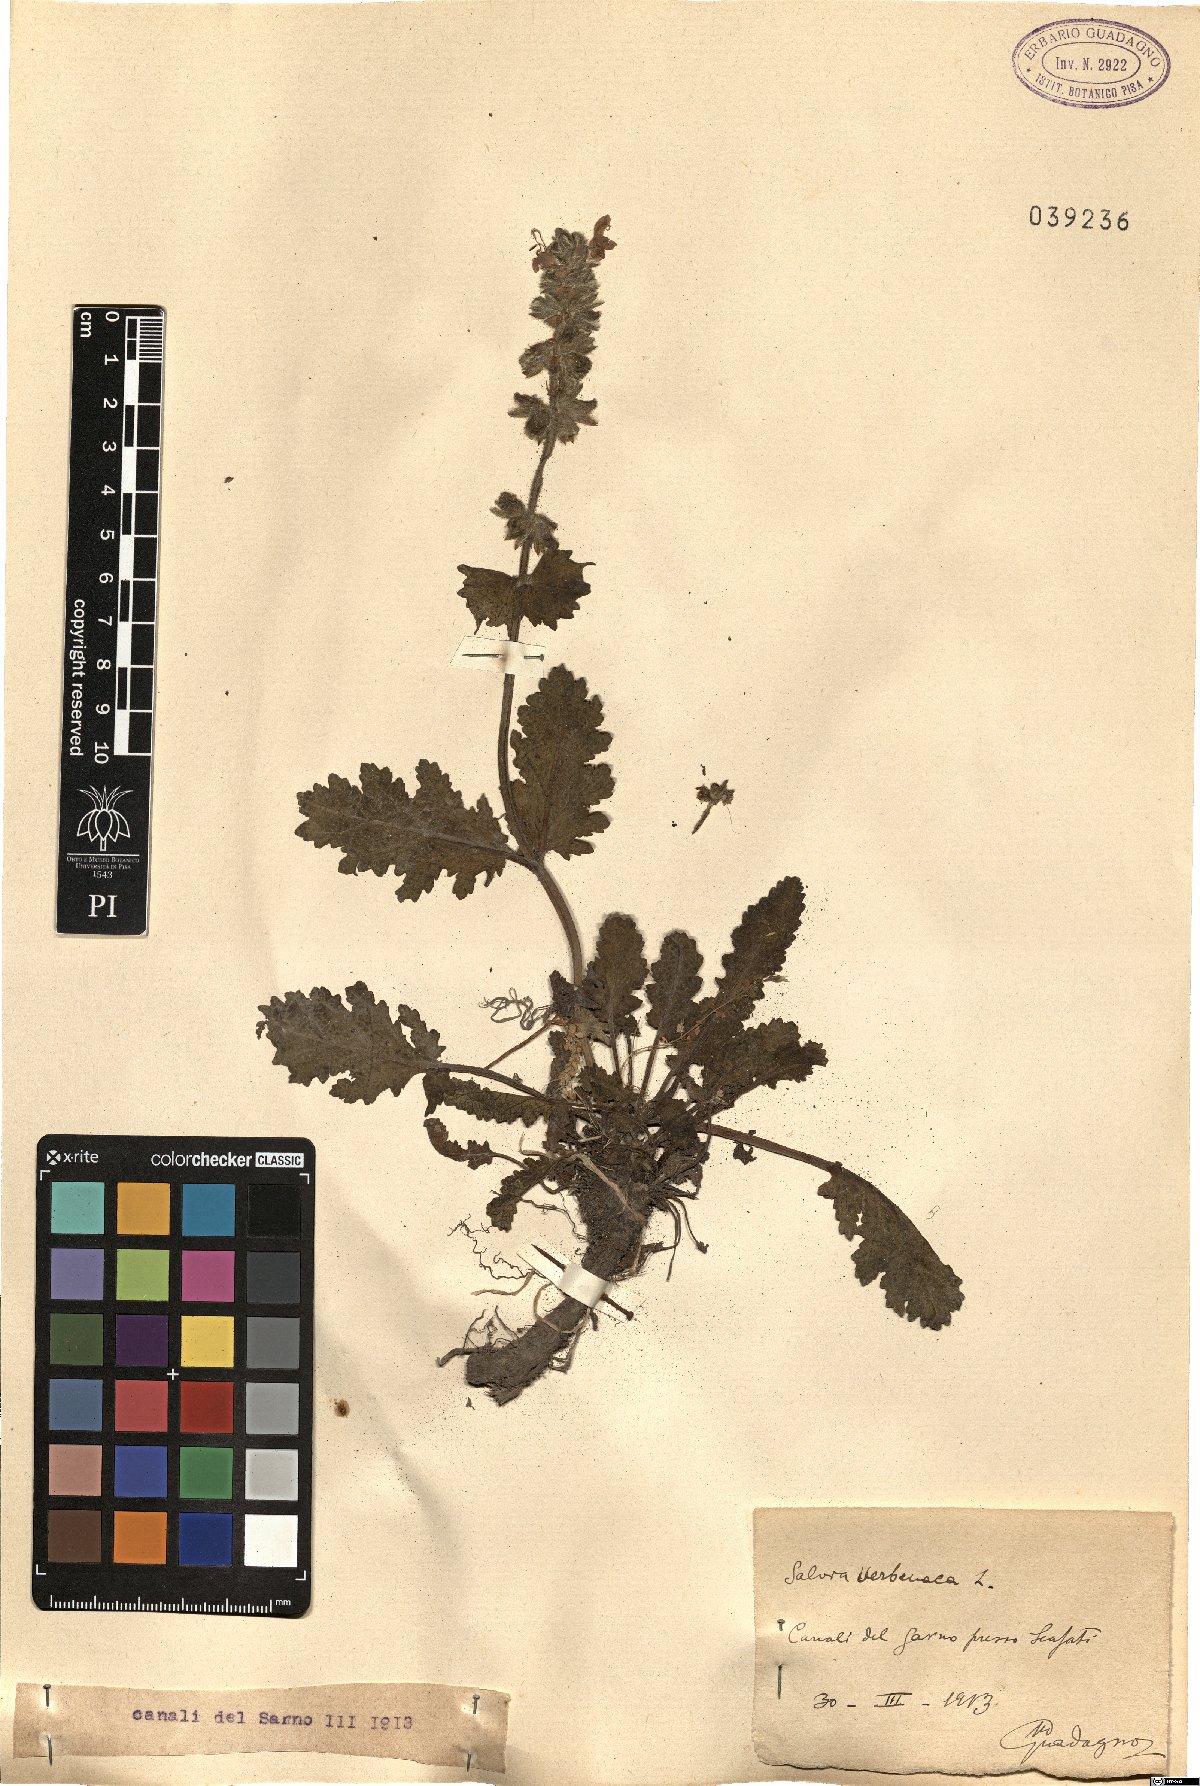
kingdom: Plantae
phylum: Tracheophyta
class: Magnoliopsida
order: Lamiales
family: Lamiaceae
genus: Salvia
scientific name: Salvia verbenaca
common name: Wild clary
